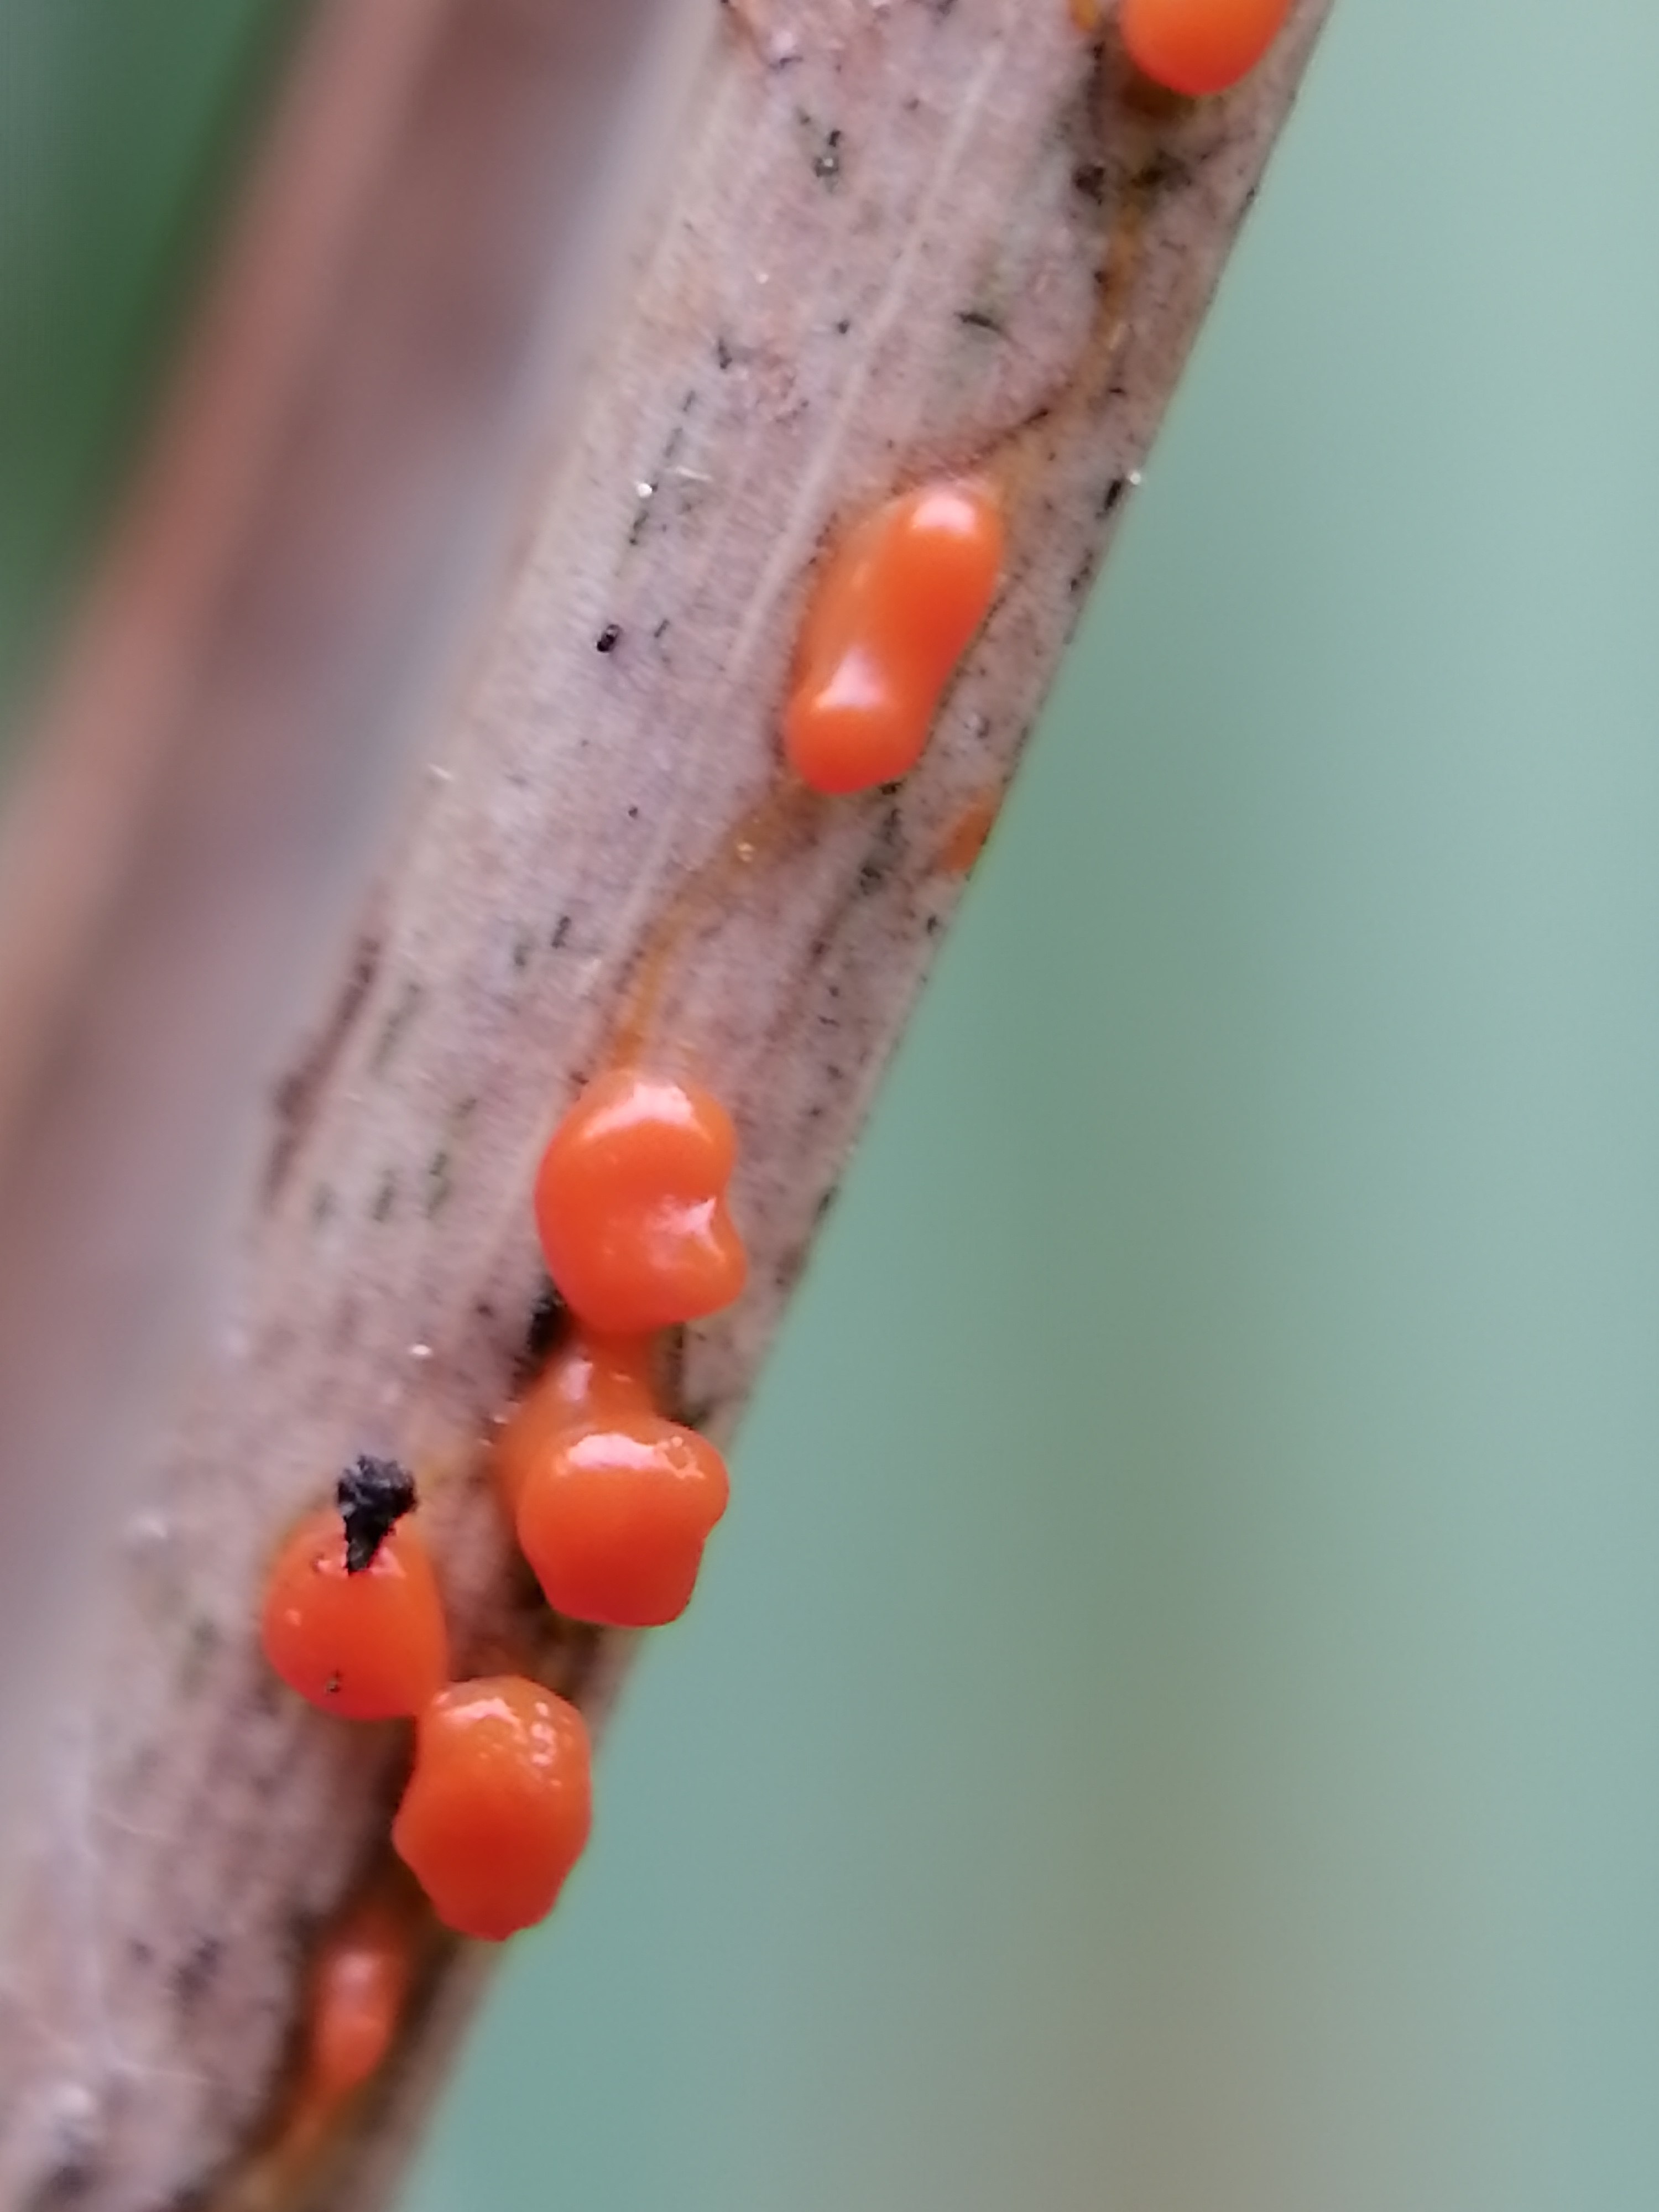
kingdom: Protozoa
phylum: Mycetozoa
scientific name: Mycetozoa
